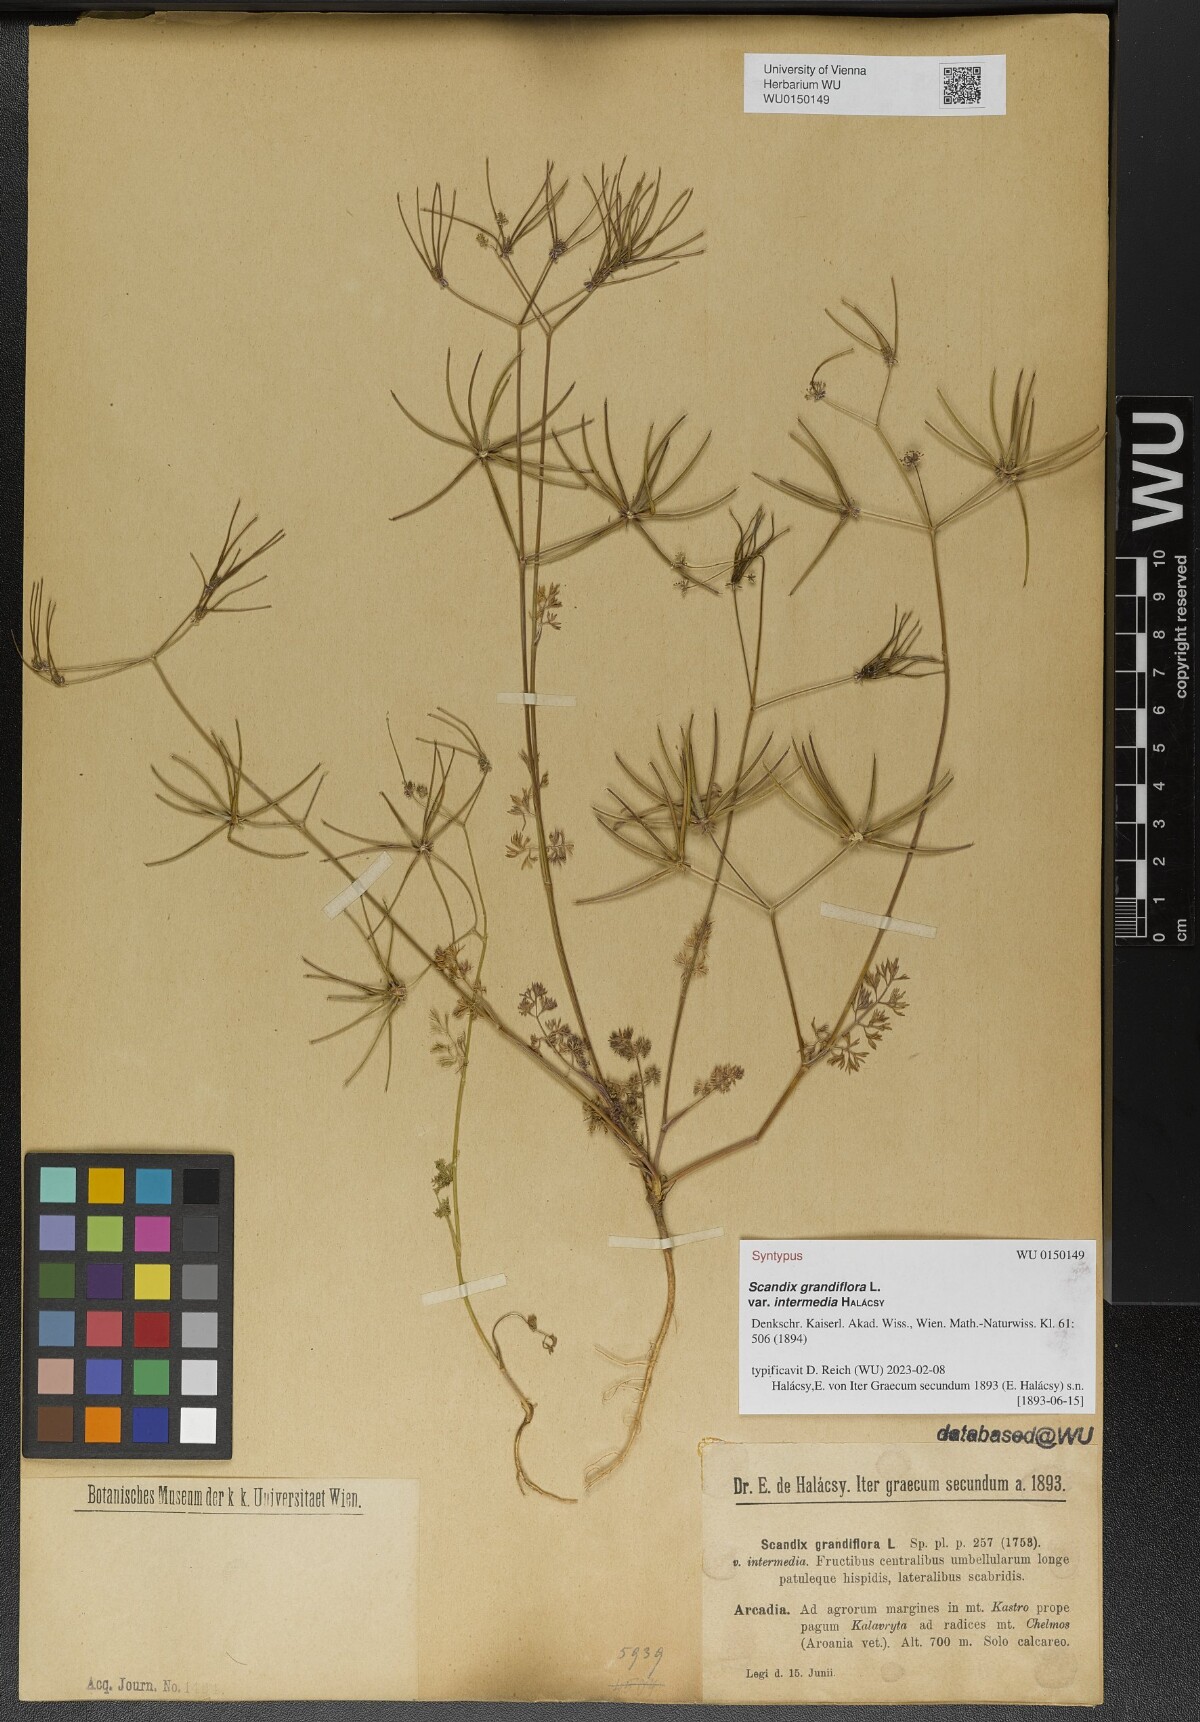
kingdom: Plantae
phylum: Tracheophyta
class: Magnoliopsida
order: Apiales
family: Apiaceae
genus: Scandix
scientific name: Scandix australis
